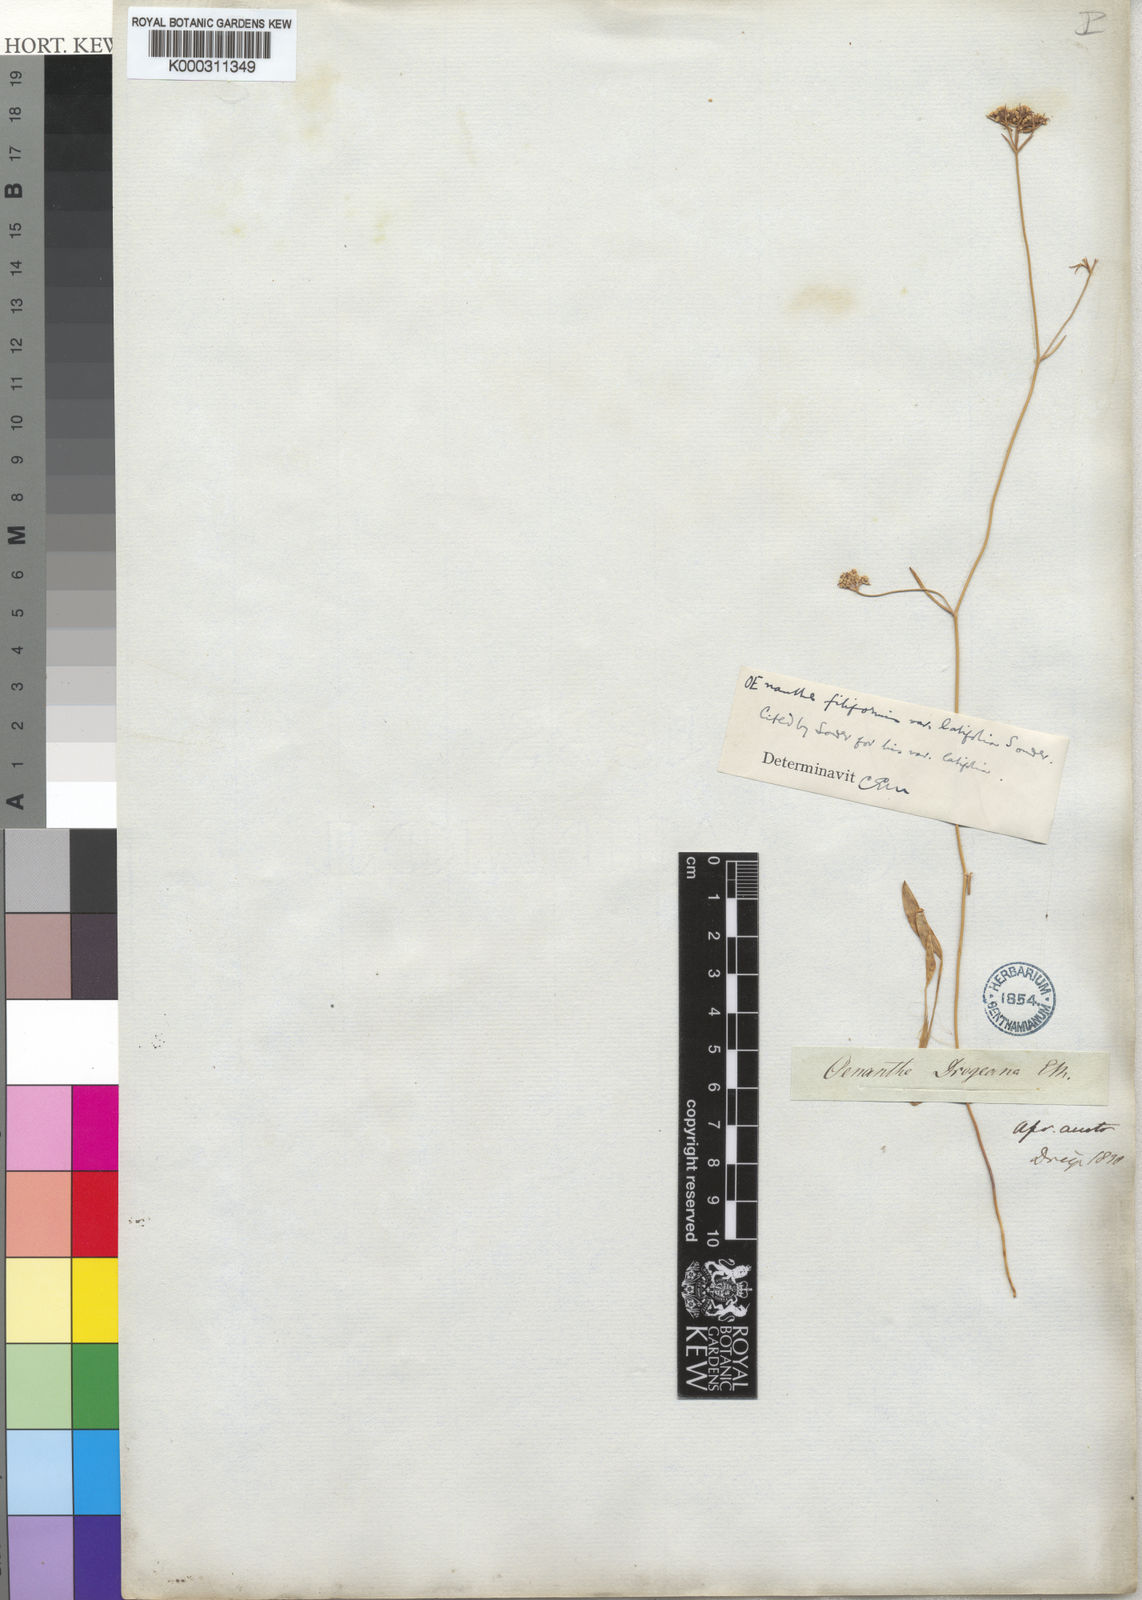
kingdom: Plantae
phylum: Tracheophyta
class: Magnoliopsida
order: Apiales
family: Apiaceae
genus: Itasina
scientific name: Itasina filifolia
